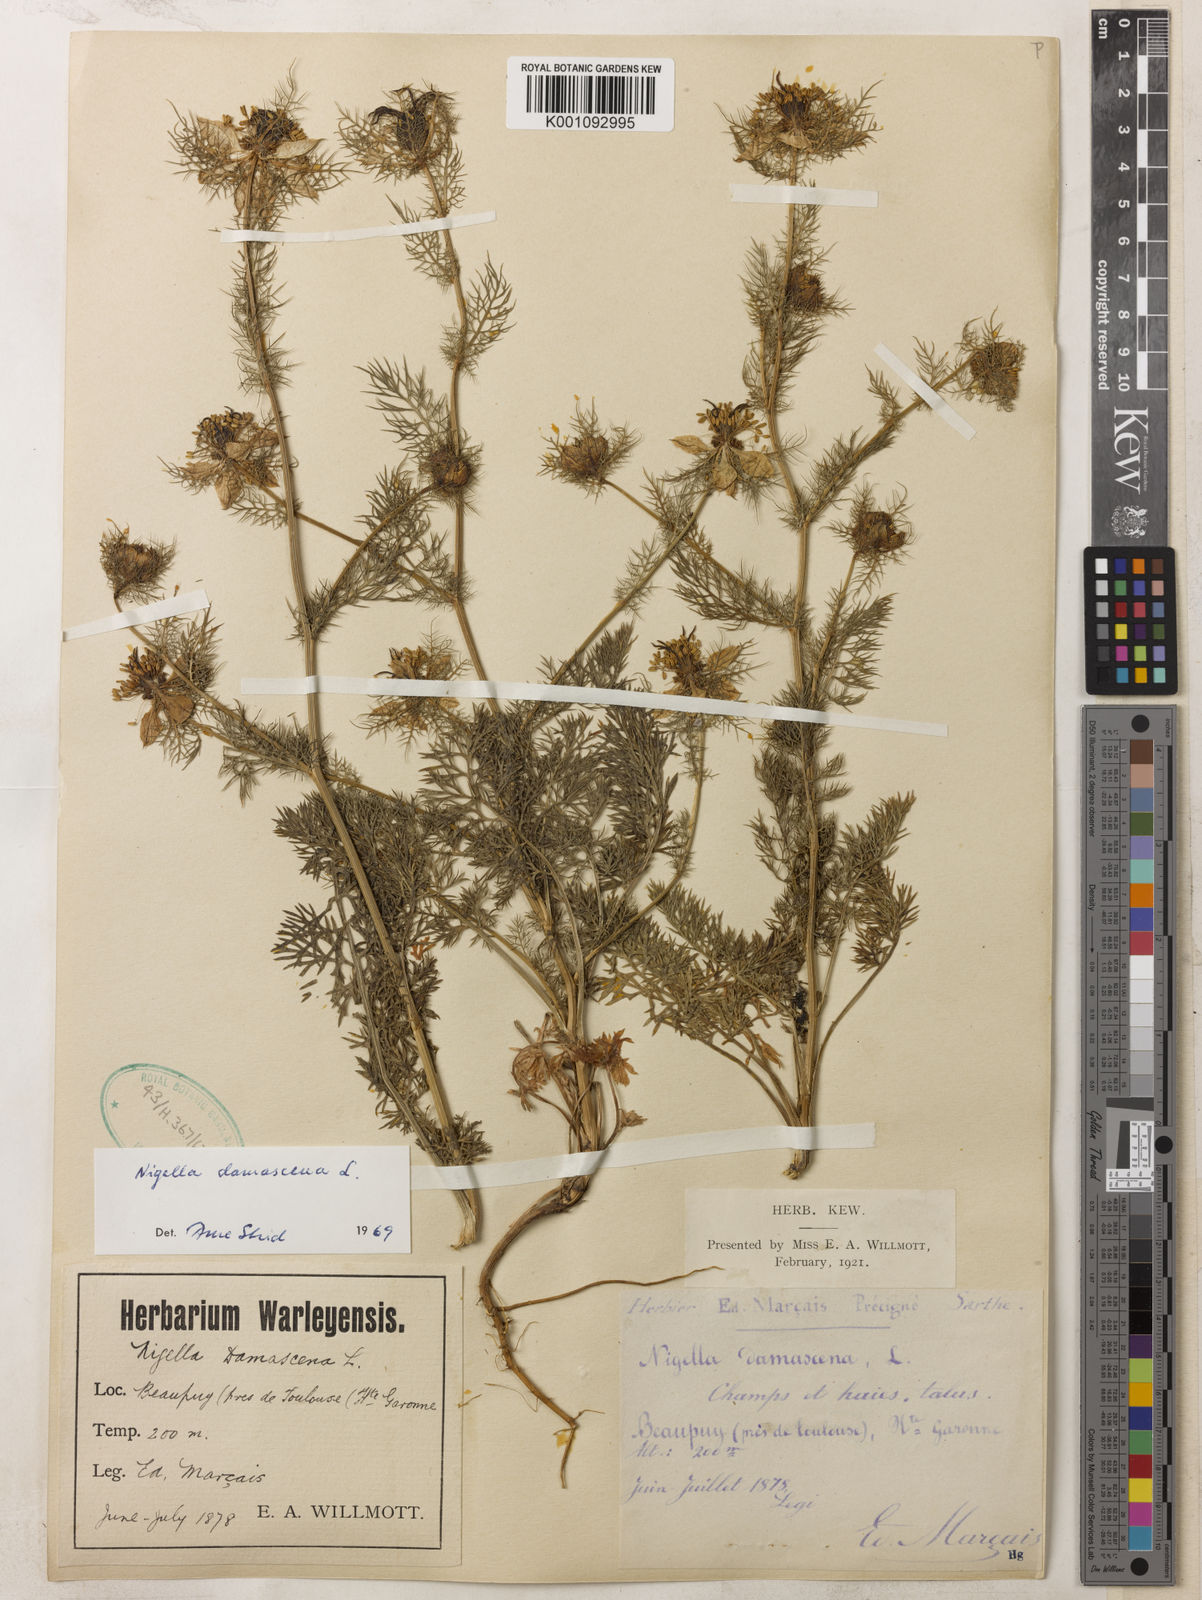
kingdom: Plantae
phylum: Tracheophyta
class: Magnoliopsida
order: Ranunculales
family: Ranunculaceae
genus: Nigella
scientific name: Nigella damascena
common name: Love-in-a-mist
